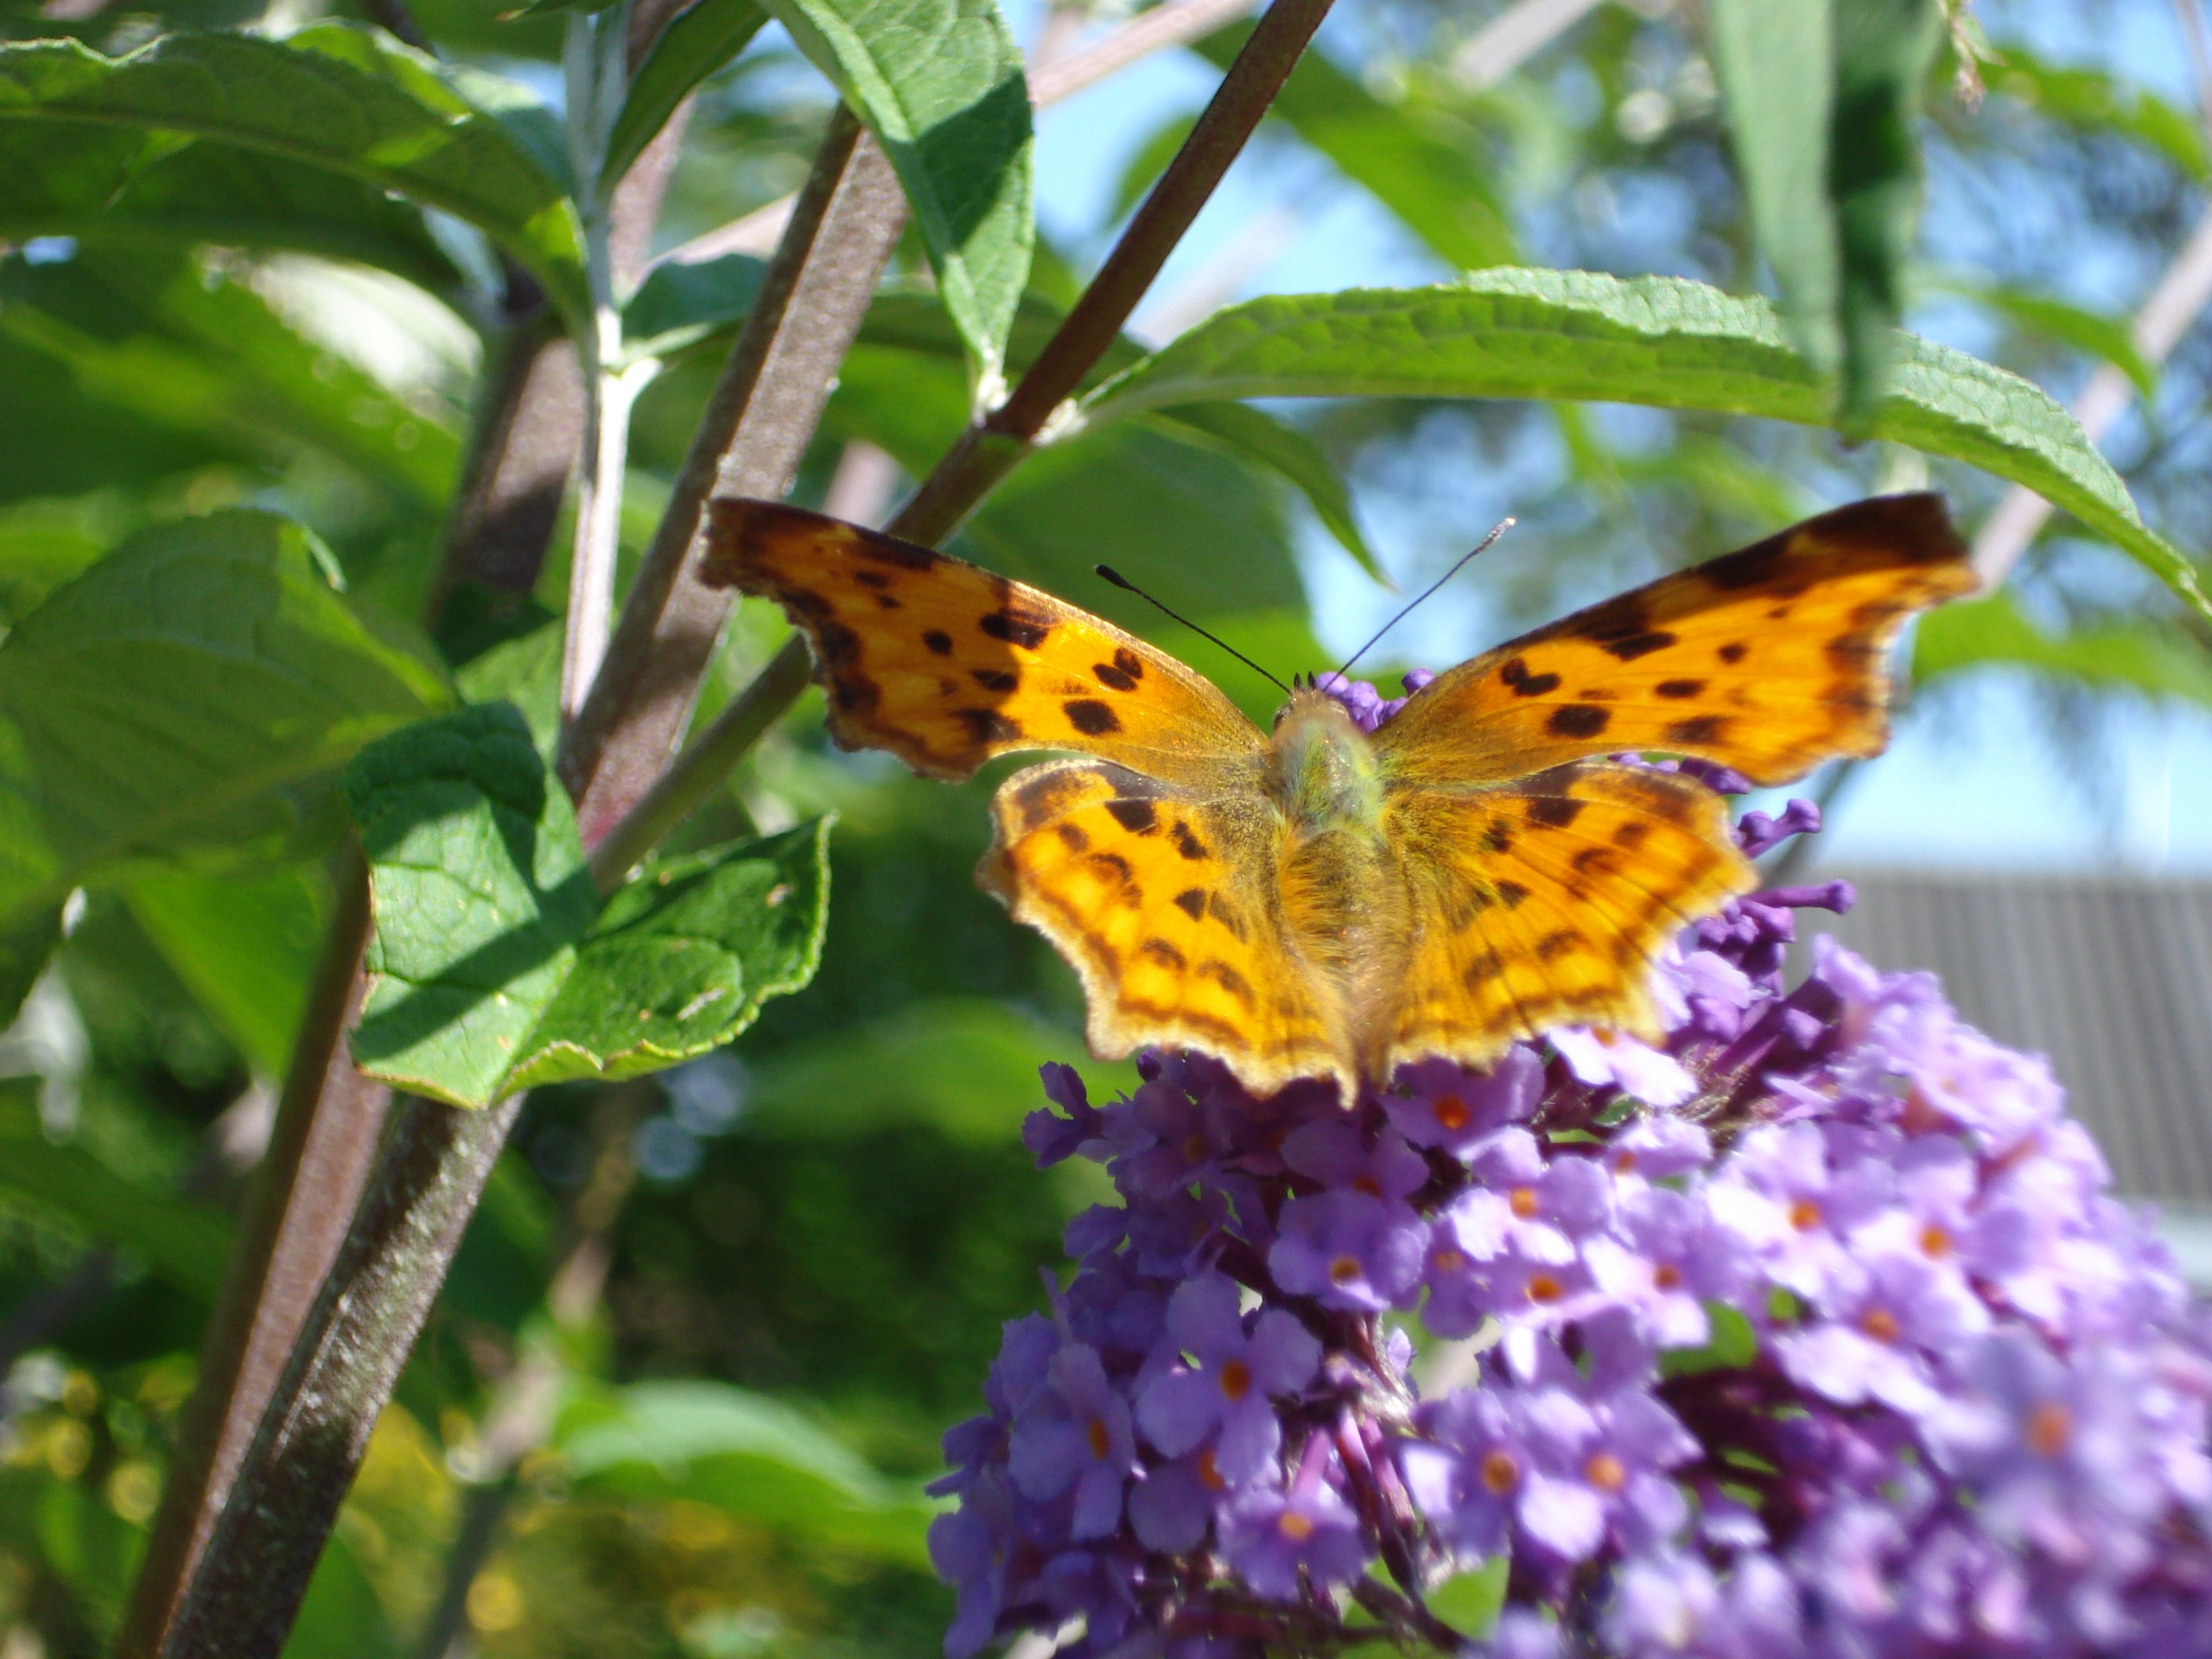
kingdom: Animalia
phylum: Arthropoda
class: Insecta
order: Lepidoptera
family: Nymphalidae
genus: Polygonia
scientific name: Polygonia c-album
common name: Det hvide C
